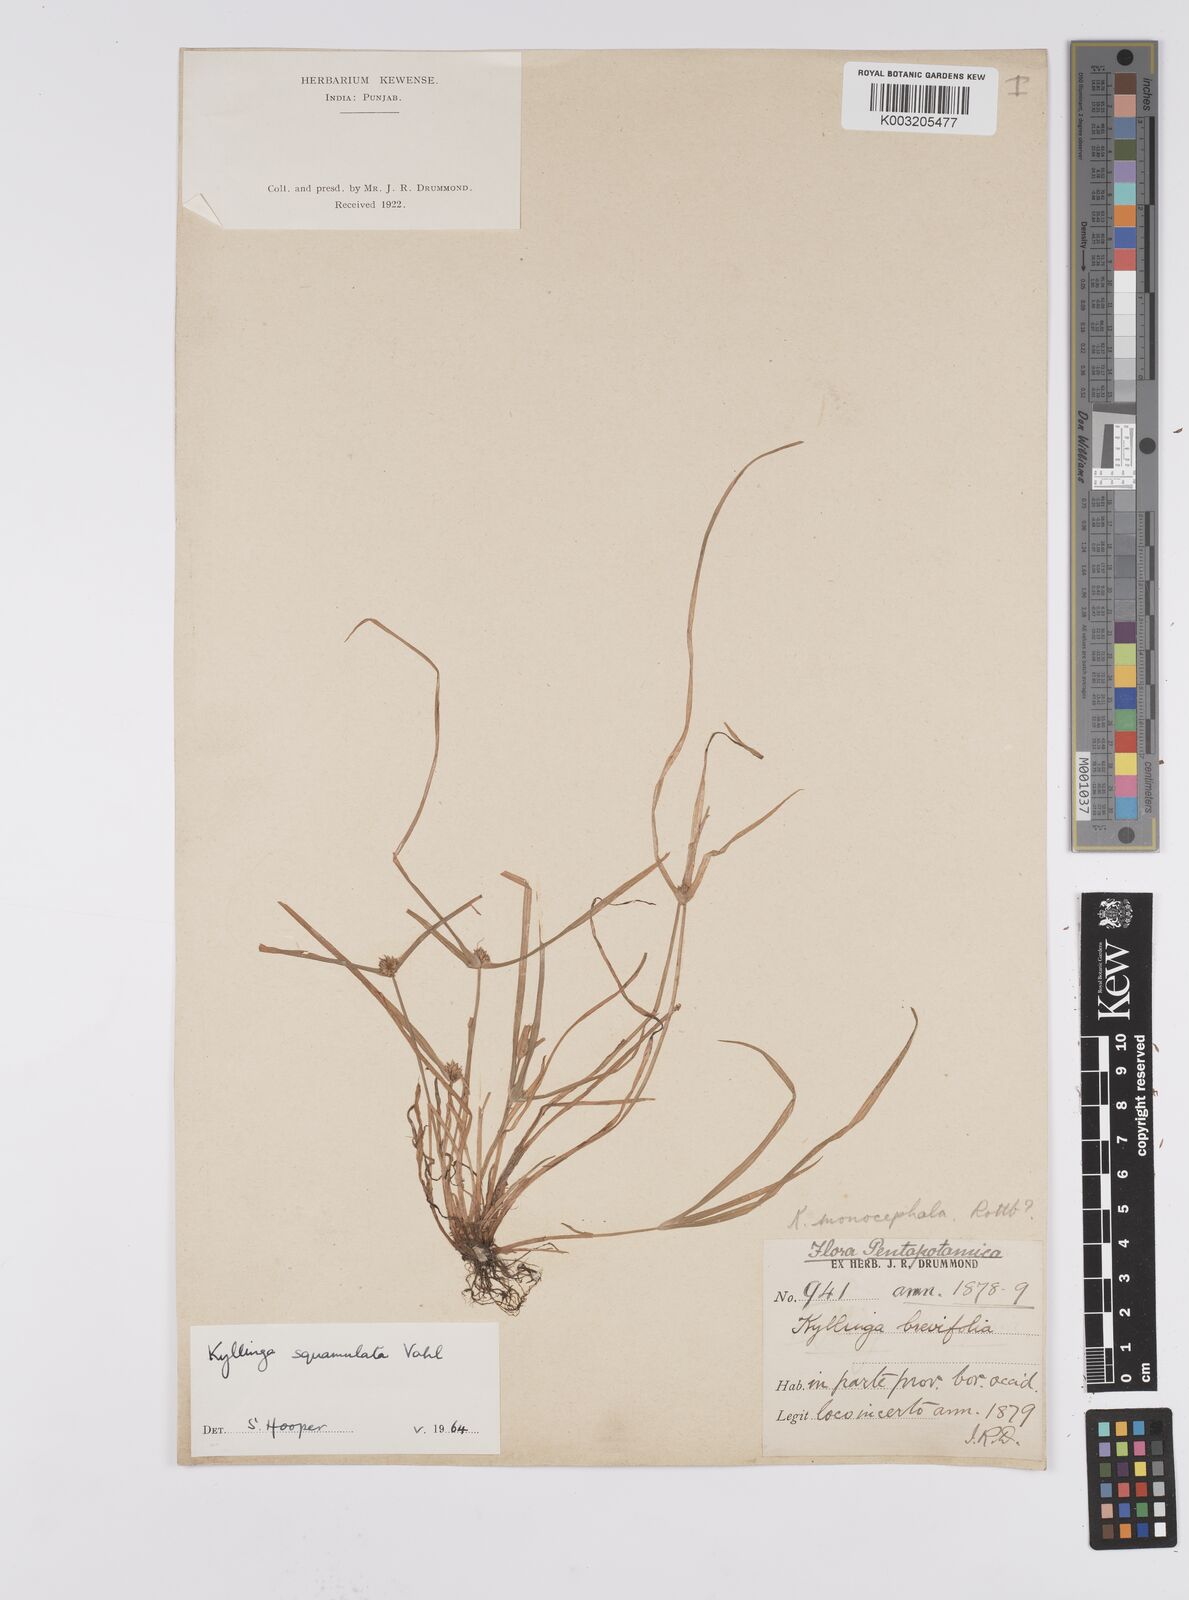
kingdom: Plantae
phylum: Tracheophyta
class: Liliopsida
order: Poales
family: Cyperaceae
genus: Cyperus
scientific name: Cyperus
